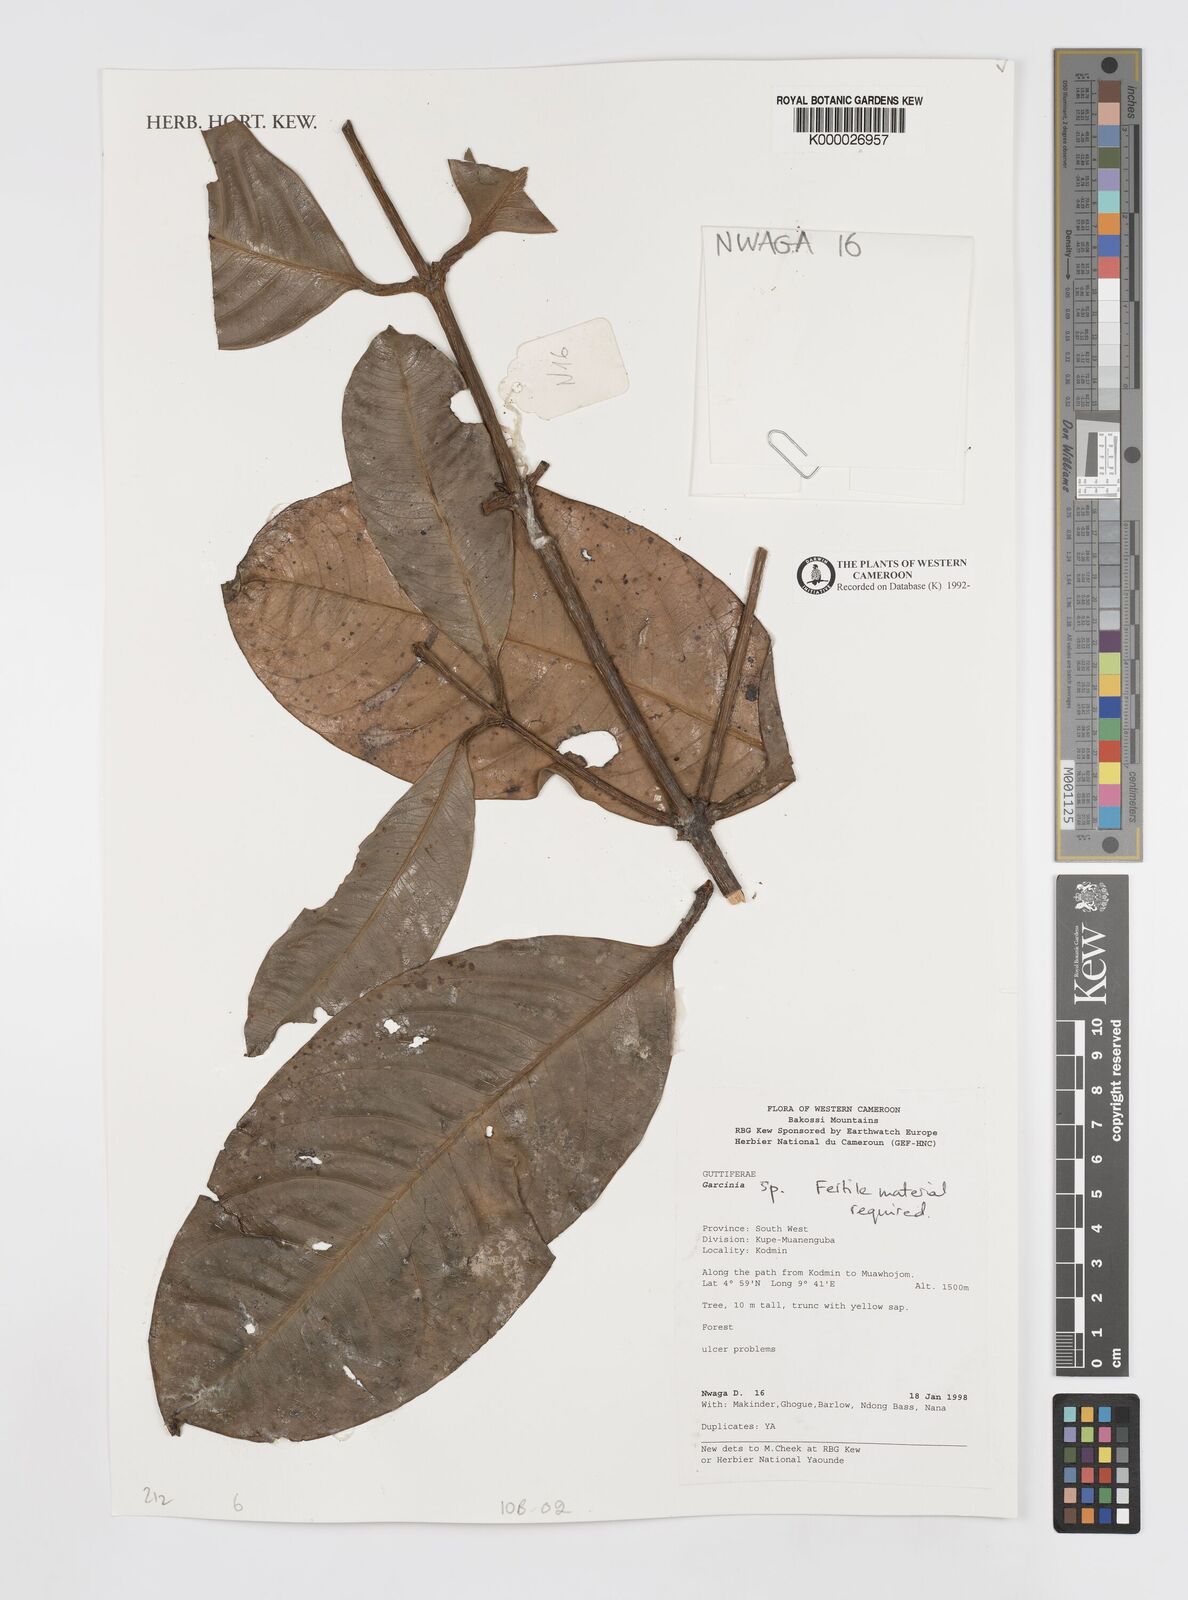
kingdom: Plantae
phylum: Tracheophyta
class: Magnoliopsida
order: Malpighiales
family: Clusiaceae
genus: Garcinia
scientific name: Garcinia lucida
